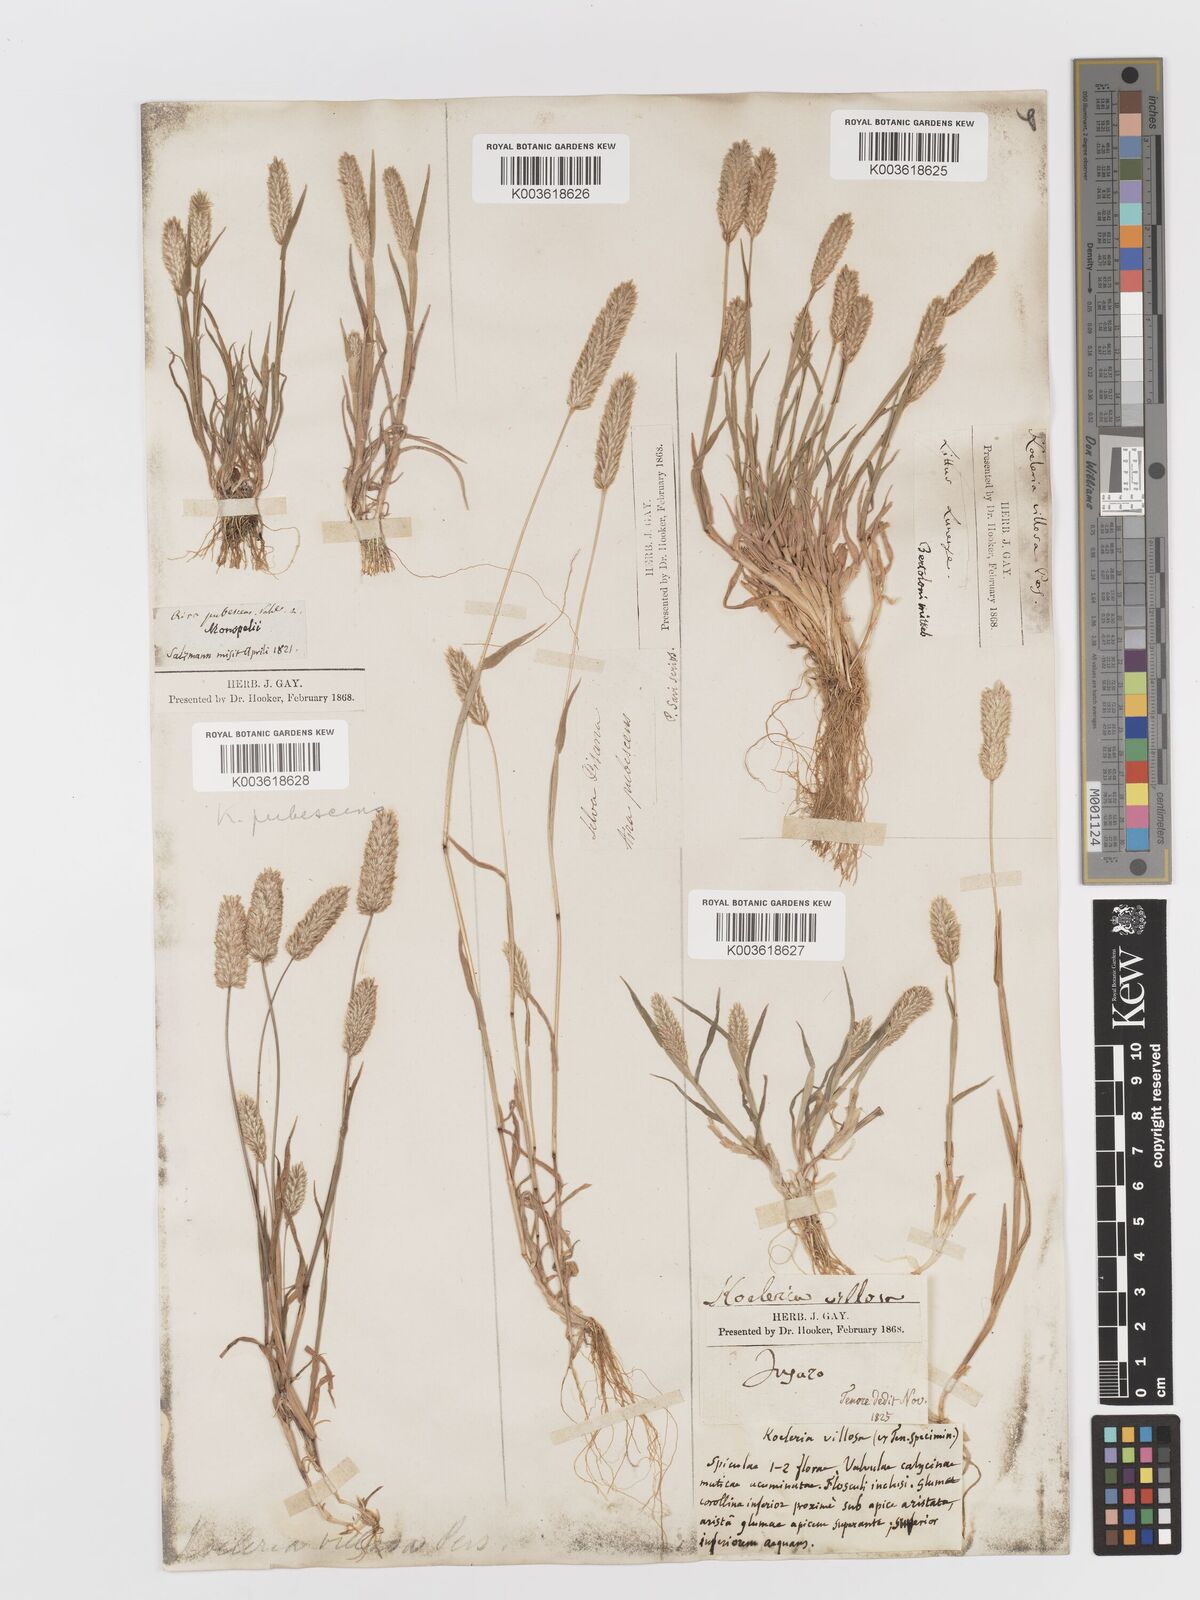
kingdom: Plantae
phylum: Tracheophyta
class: Liliopsida
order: Poales
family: Poaceae
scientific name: Poaceae
